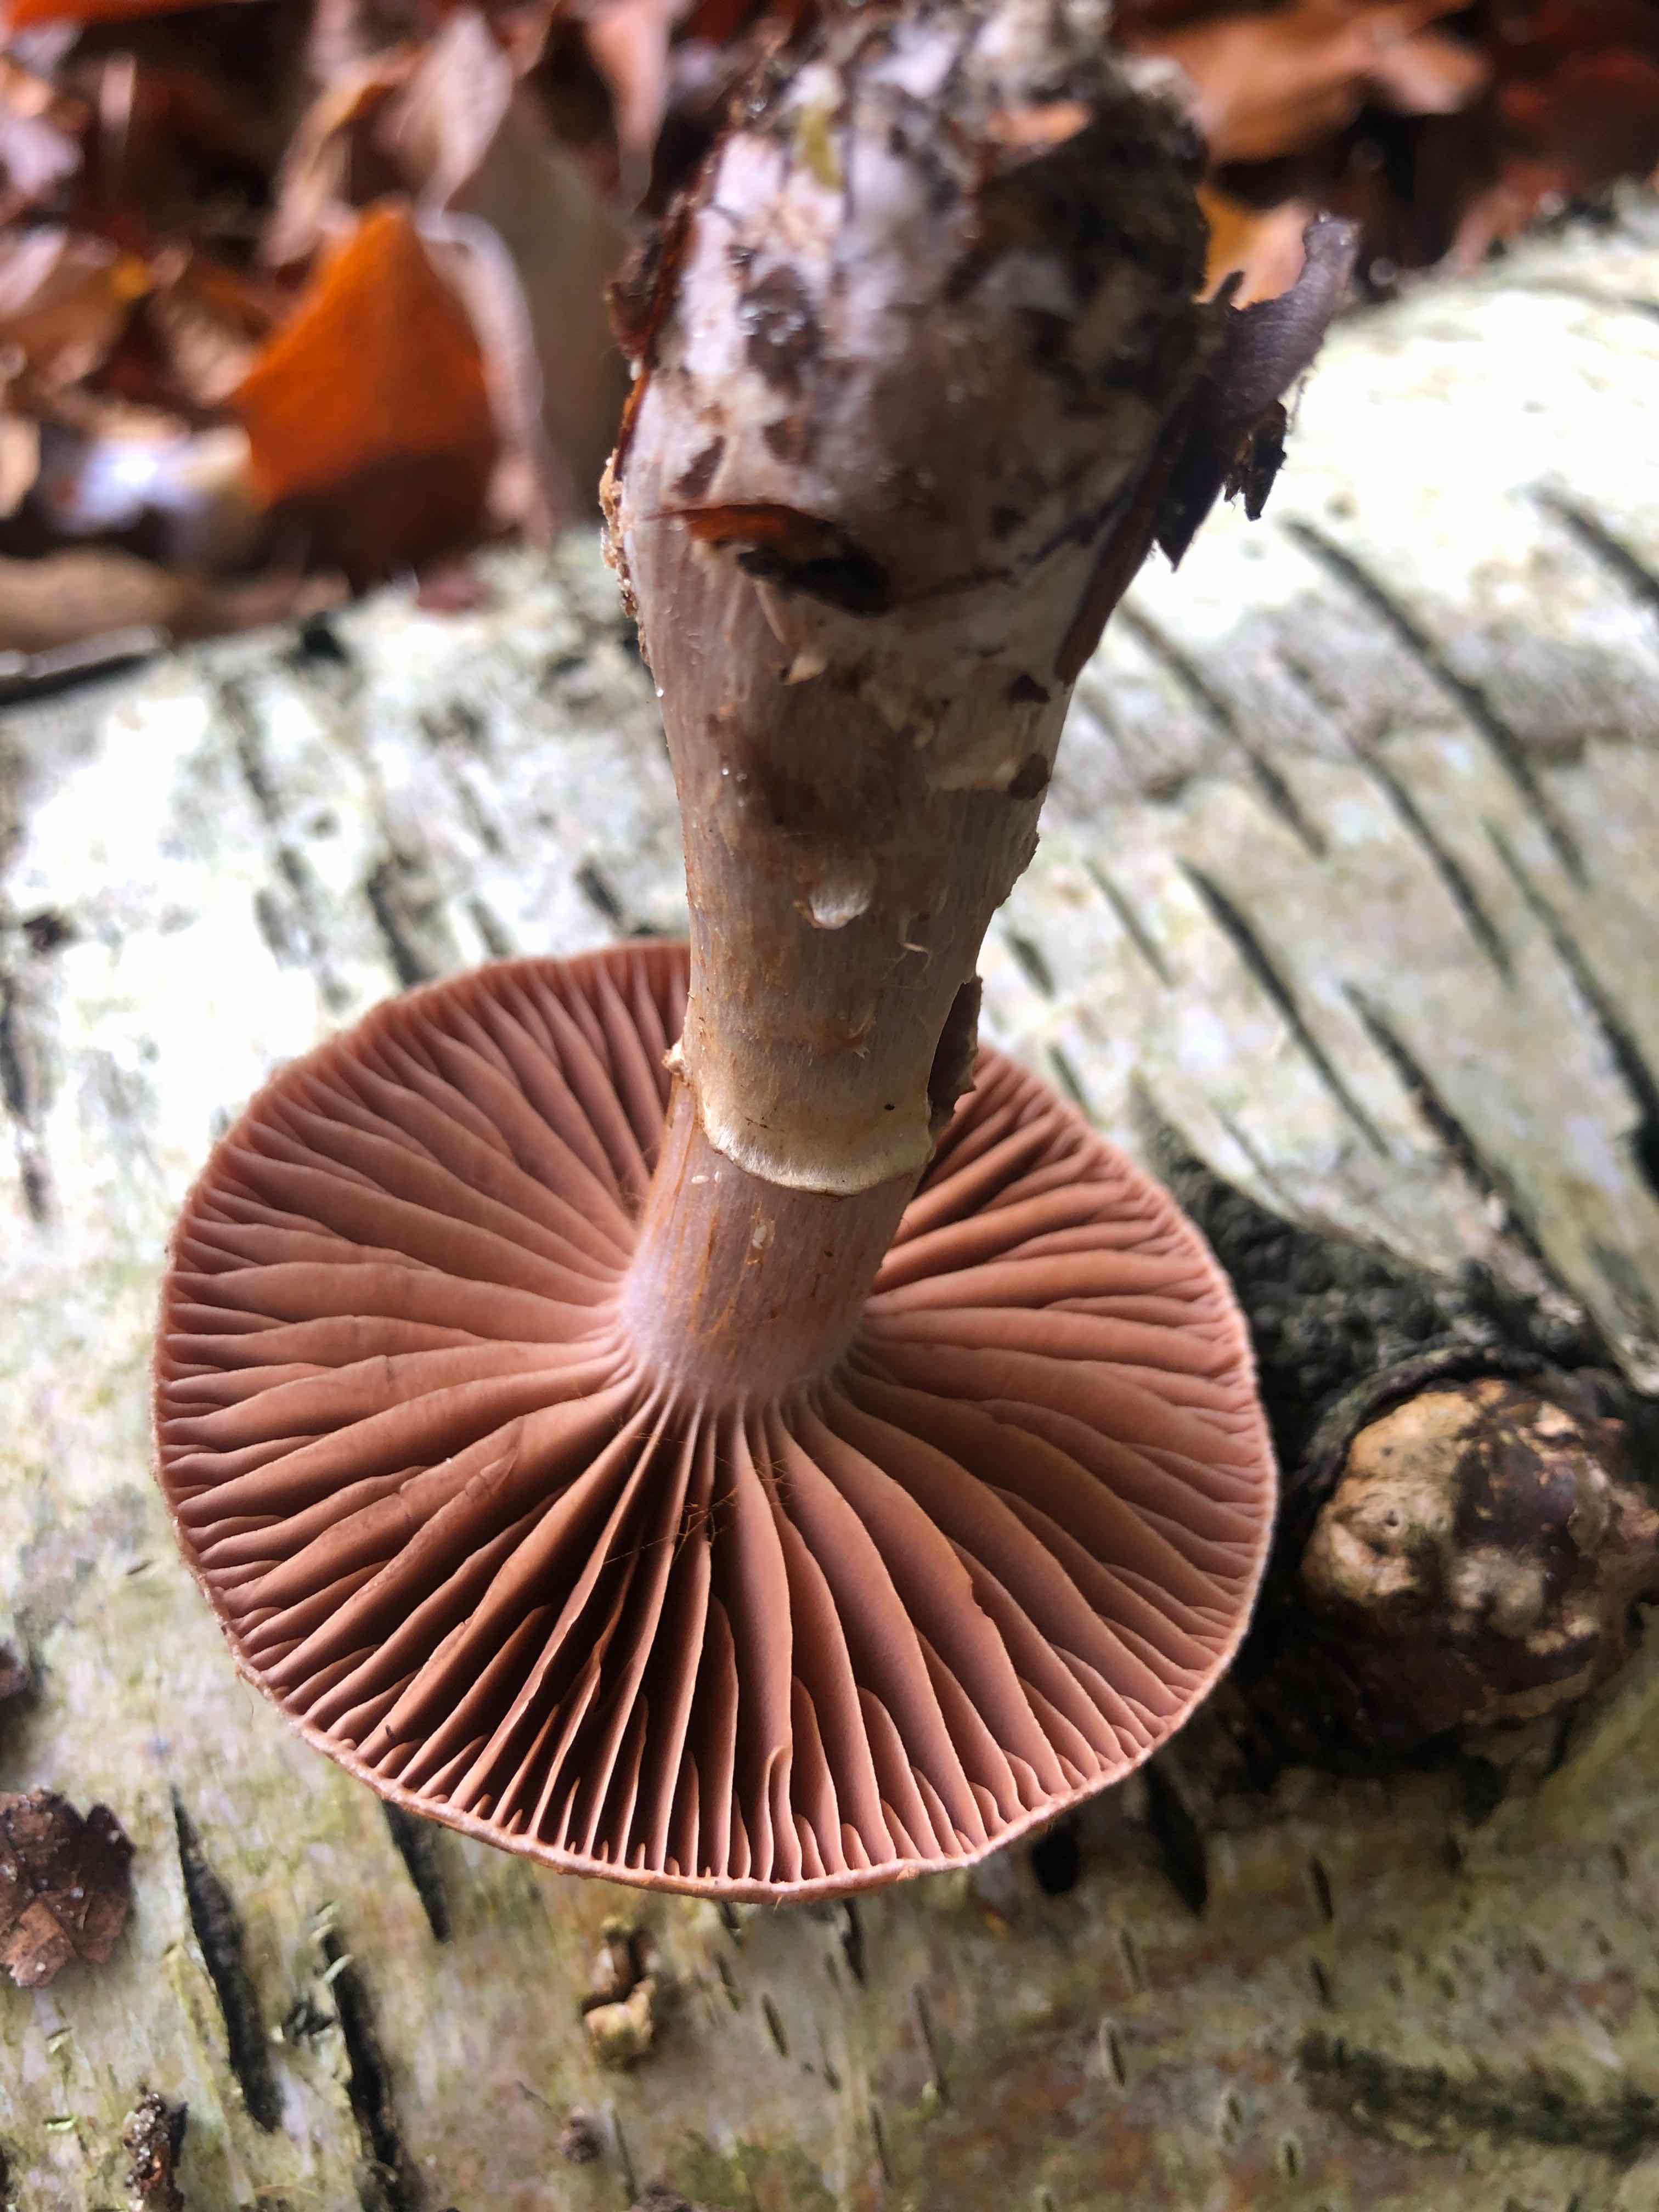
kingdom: Fungi
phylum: Basidiomycota
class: Agaricomycetes
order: Agaricales
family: Cortinariaceae
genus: Cortinarius
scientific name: Cortinarius torvus
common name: champignonagtig slørhat
